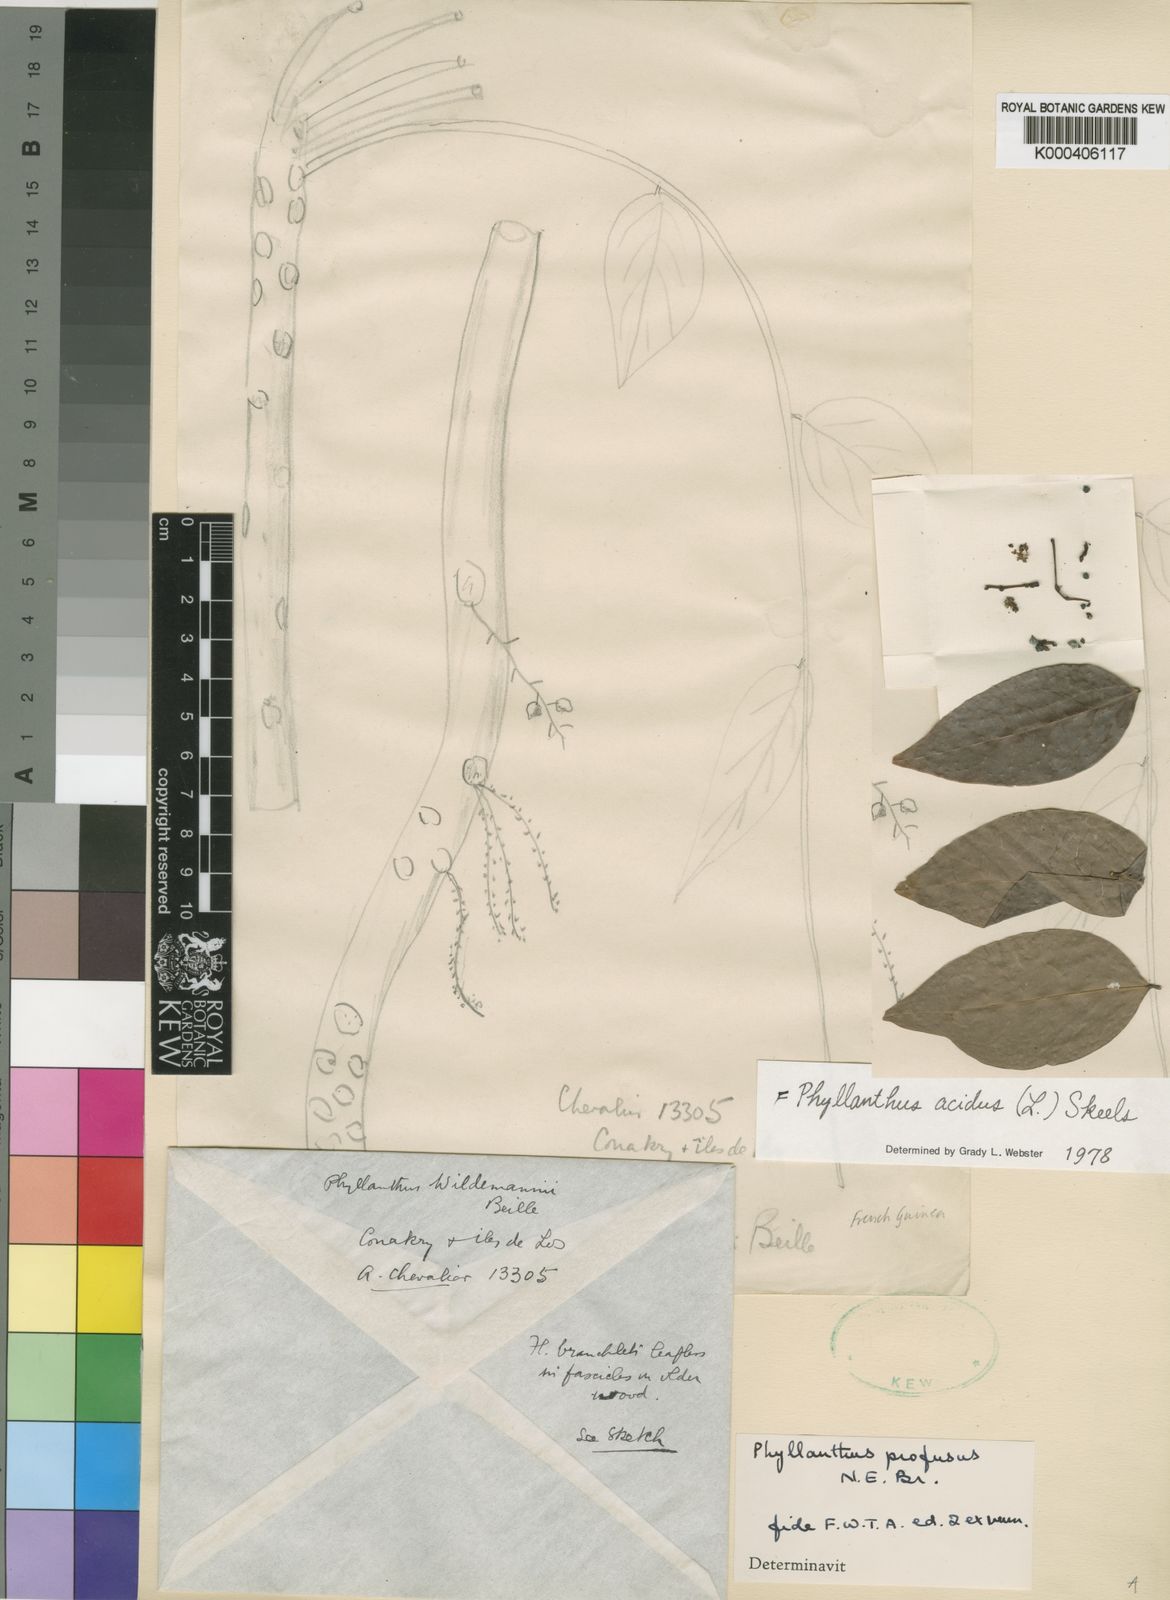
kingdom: Plantae
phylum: Tracheophyta
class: Magnoliopsida
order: Malpighiales
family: Phyllanthaceae
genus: Phyllanthus
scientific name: Phyllanthus acidus
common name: Tahitian gooseberry tree
